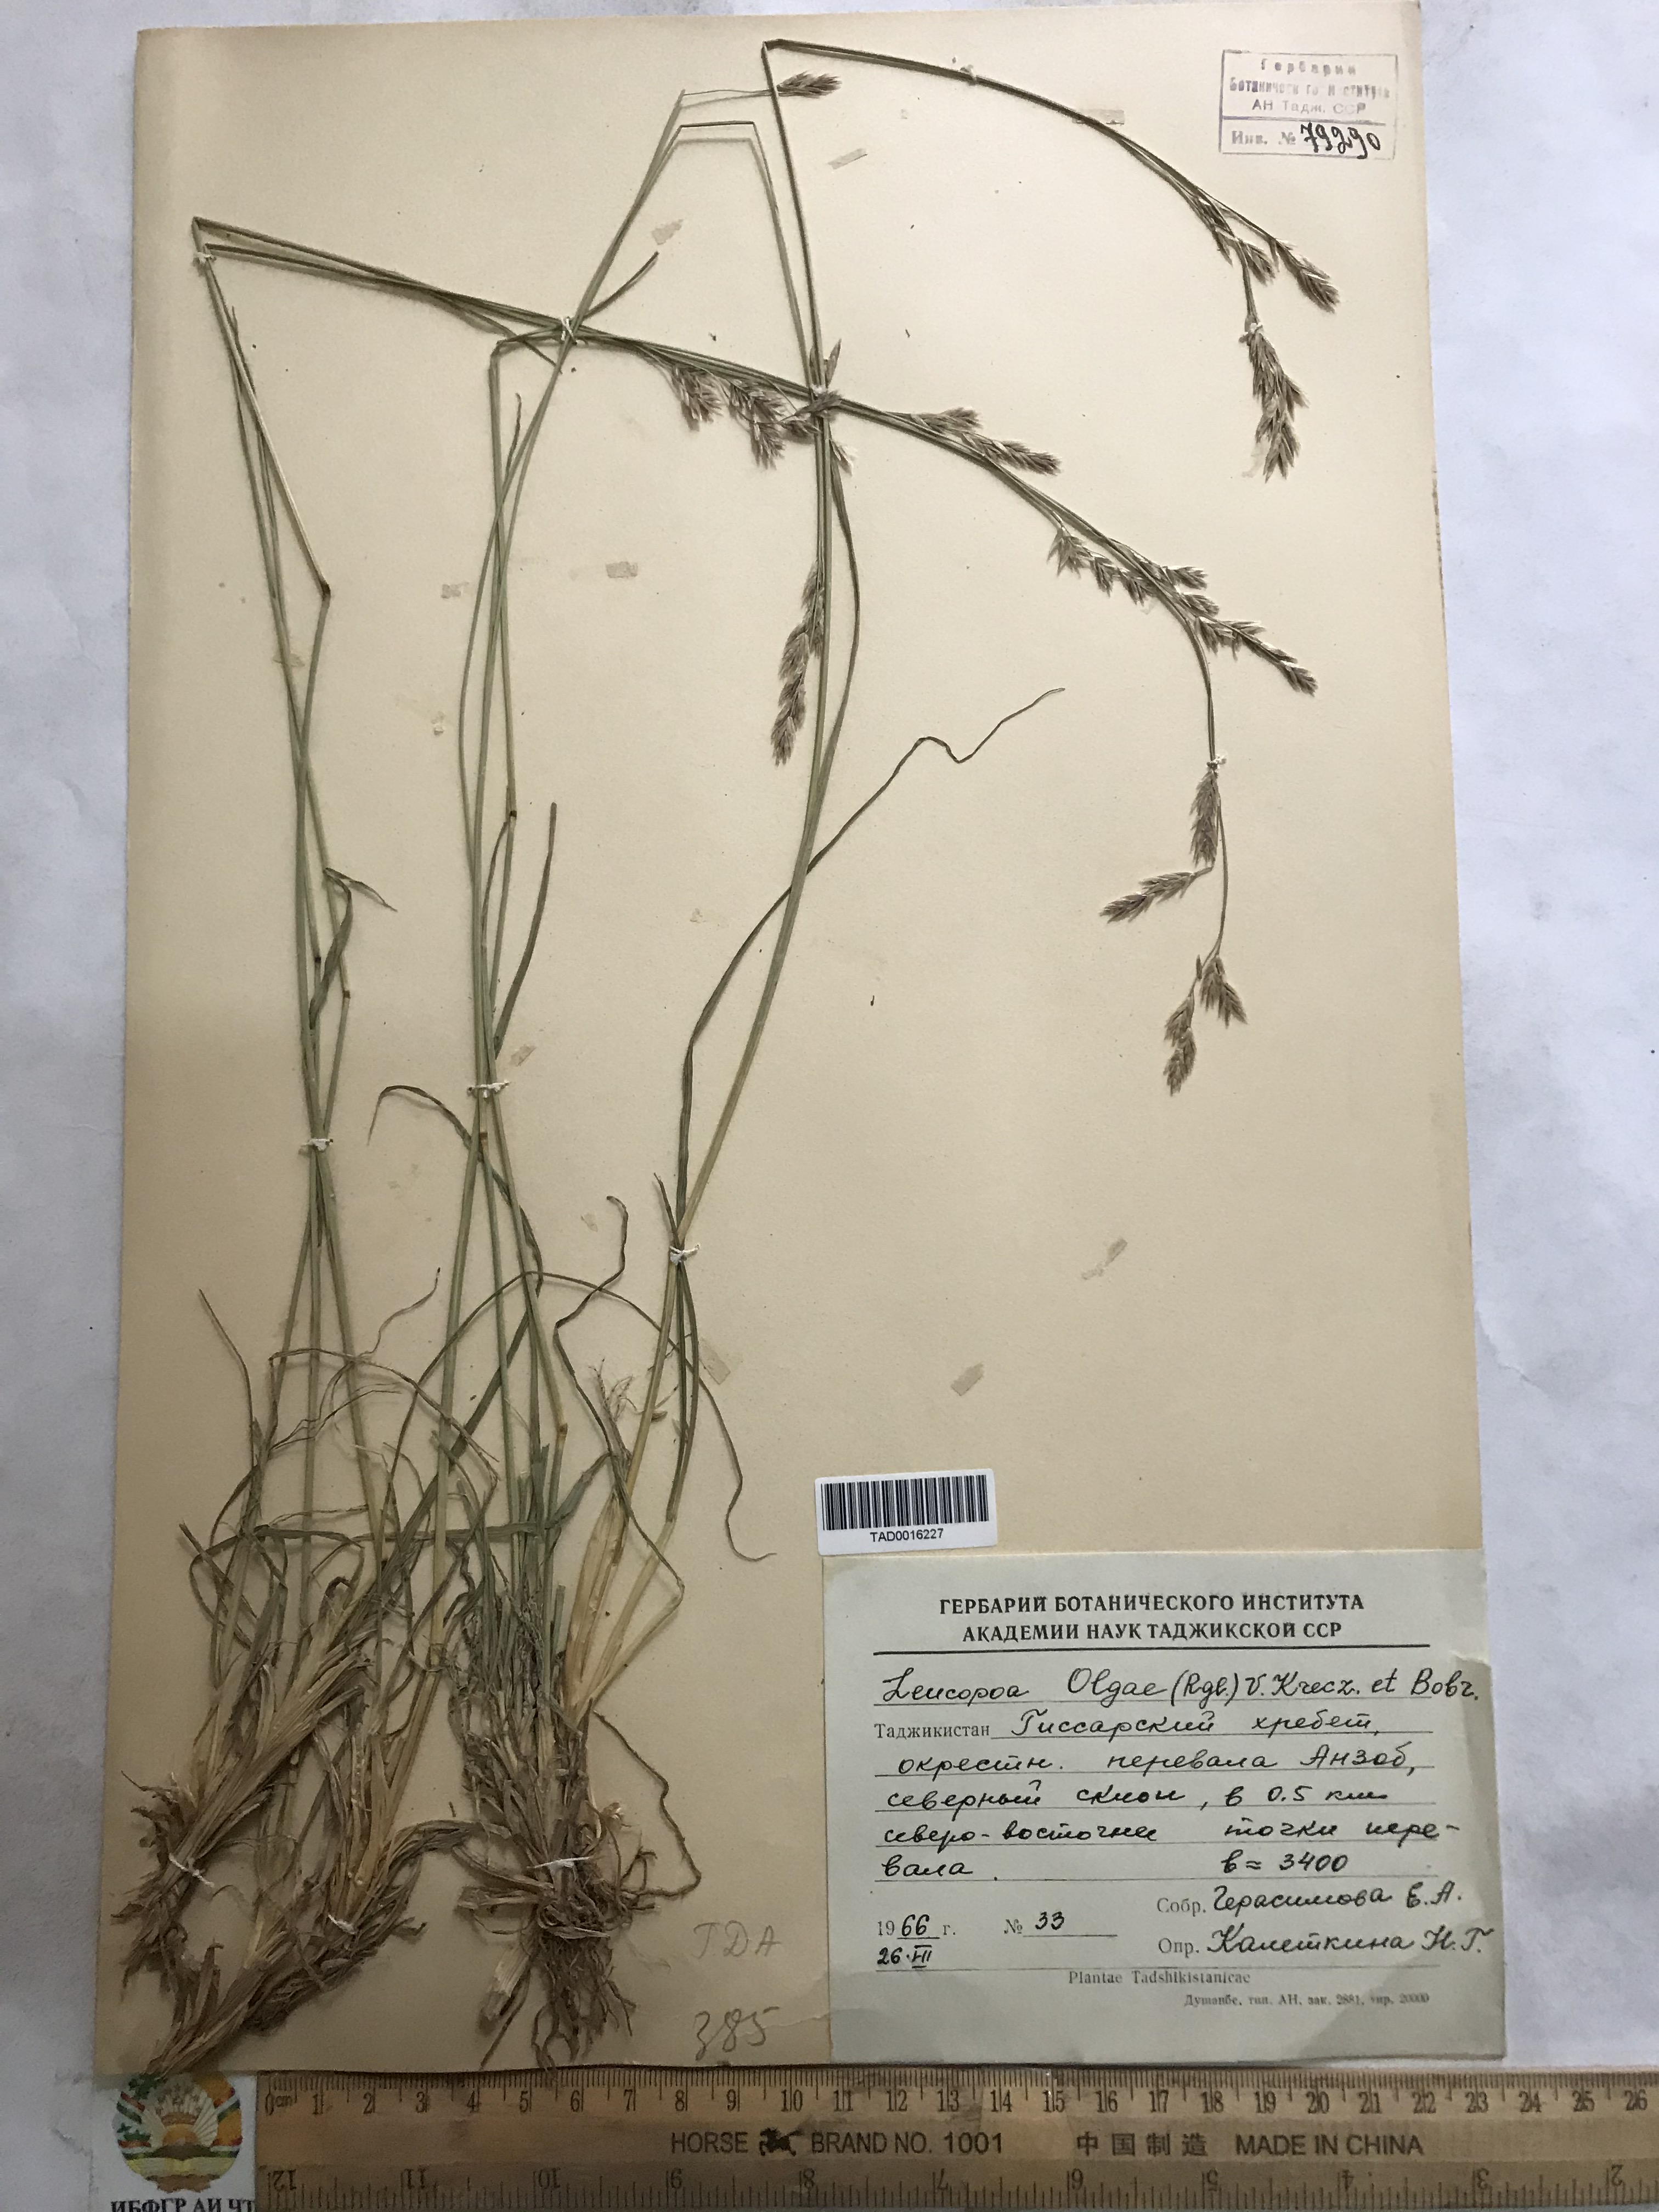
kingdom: Plantae
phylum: Tracheophyta
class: Liliopsida
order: Poales
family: Poaceae
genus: Festuca
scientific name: Festuca
